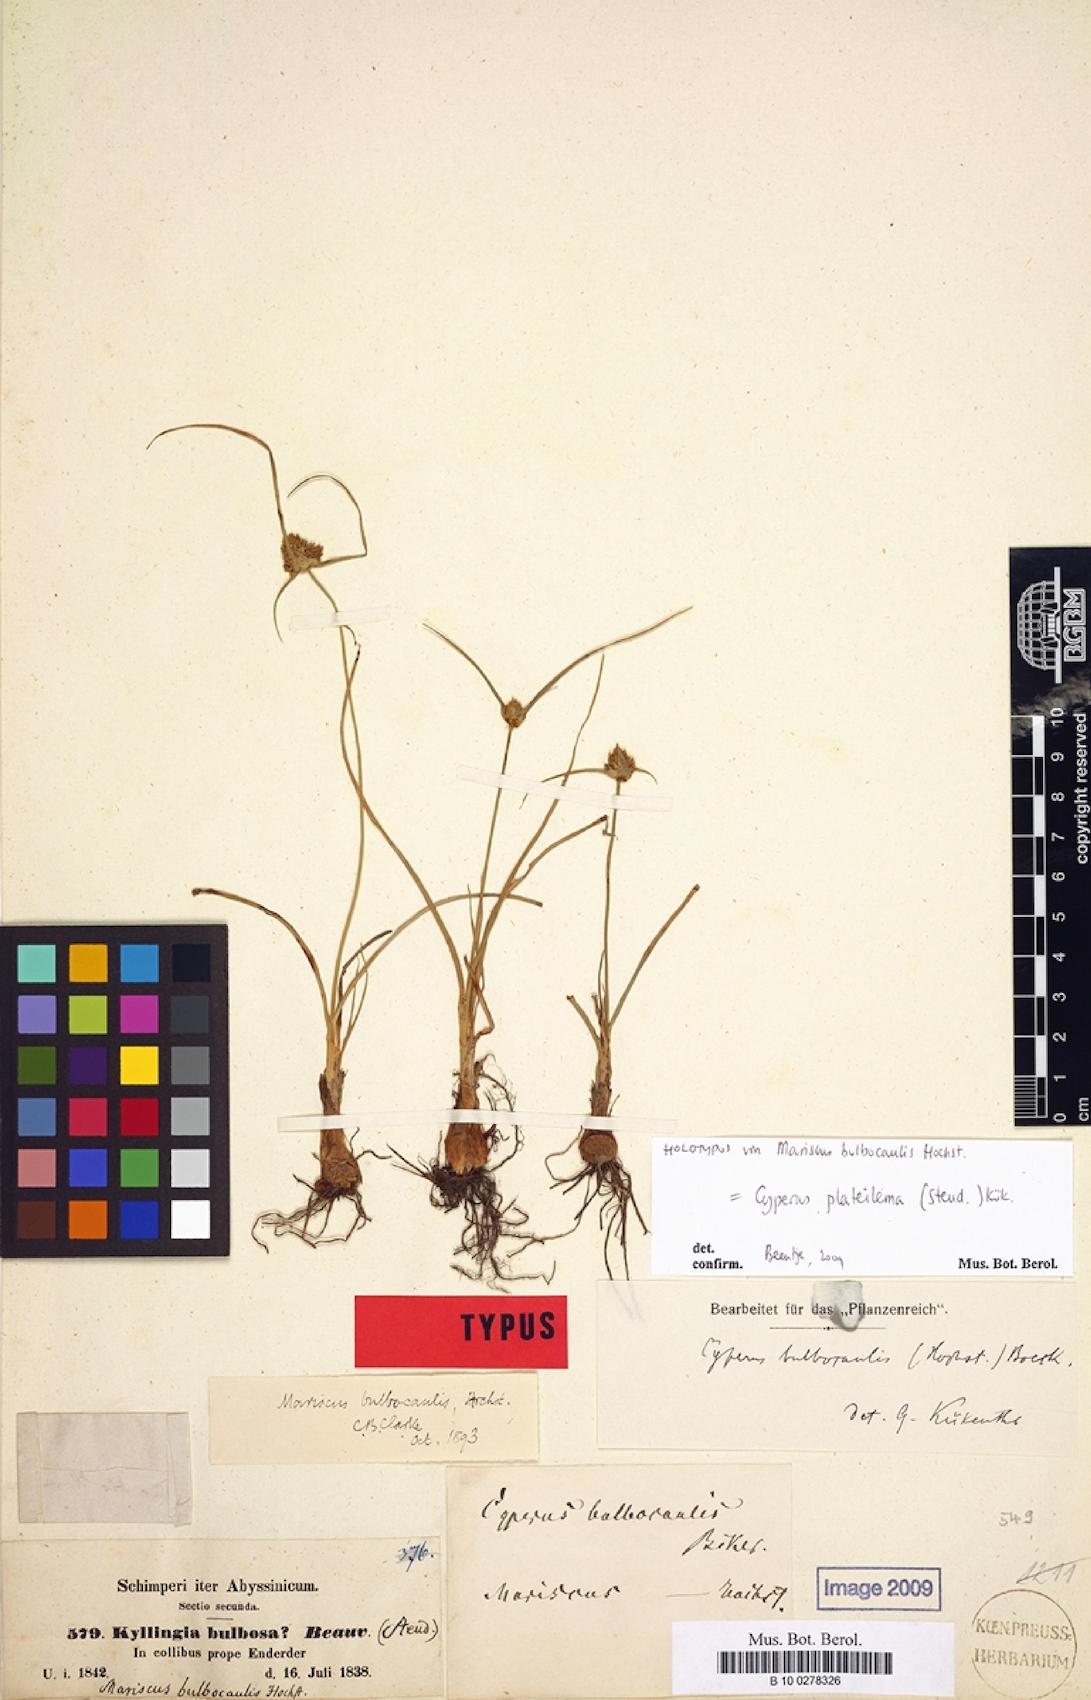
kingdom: Plantae
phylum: Tracheophyta
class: Liliopsida
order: Poales
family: Cyperaceae
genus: Cyperus
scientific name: Cyperus plateilema
